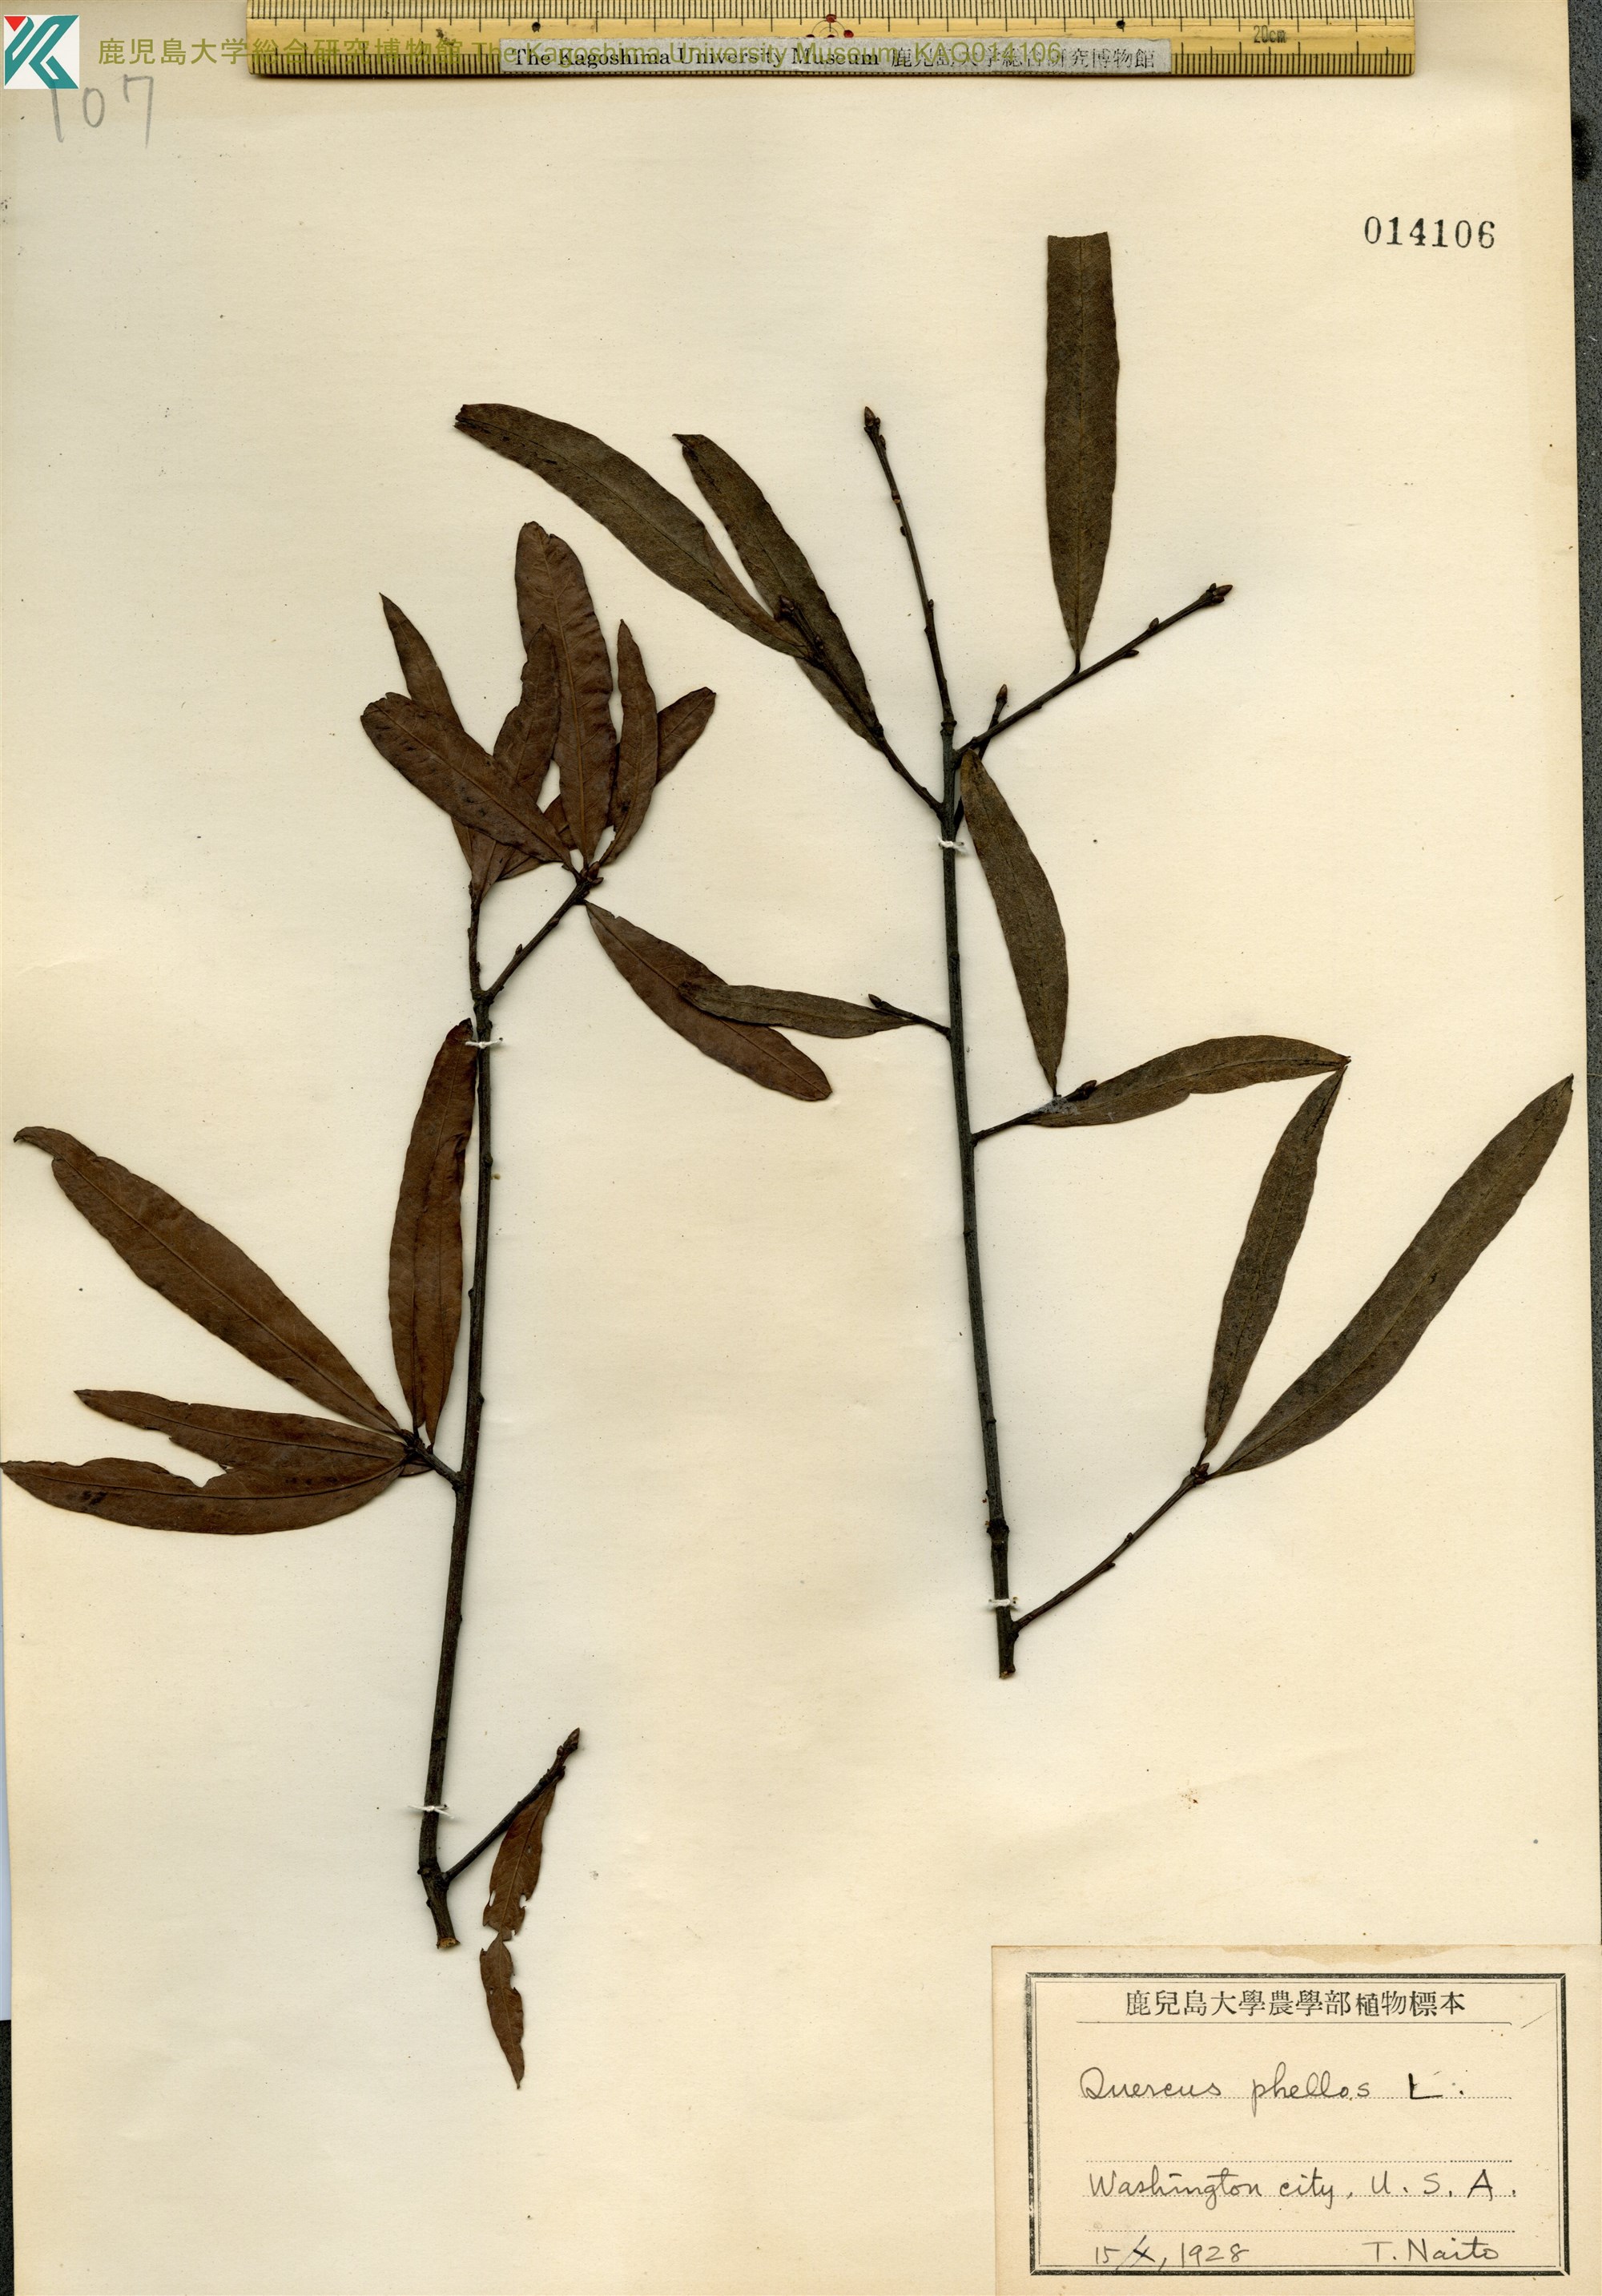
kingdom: Plantae
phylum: Tracheophyta
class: Magnoliopsida
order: Fagales
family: Fagaceae
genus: Quercus
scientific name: Quercus phellos
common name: Willow oak
